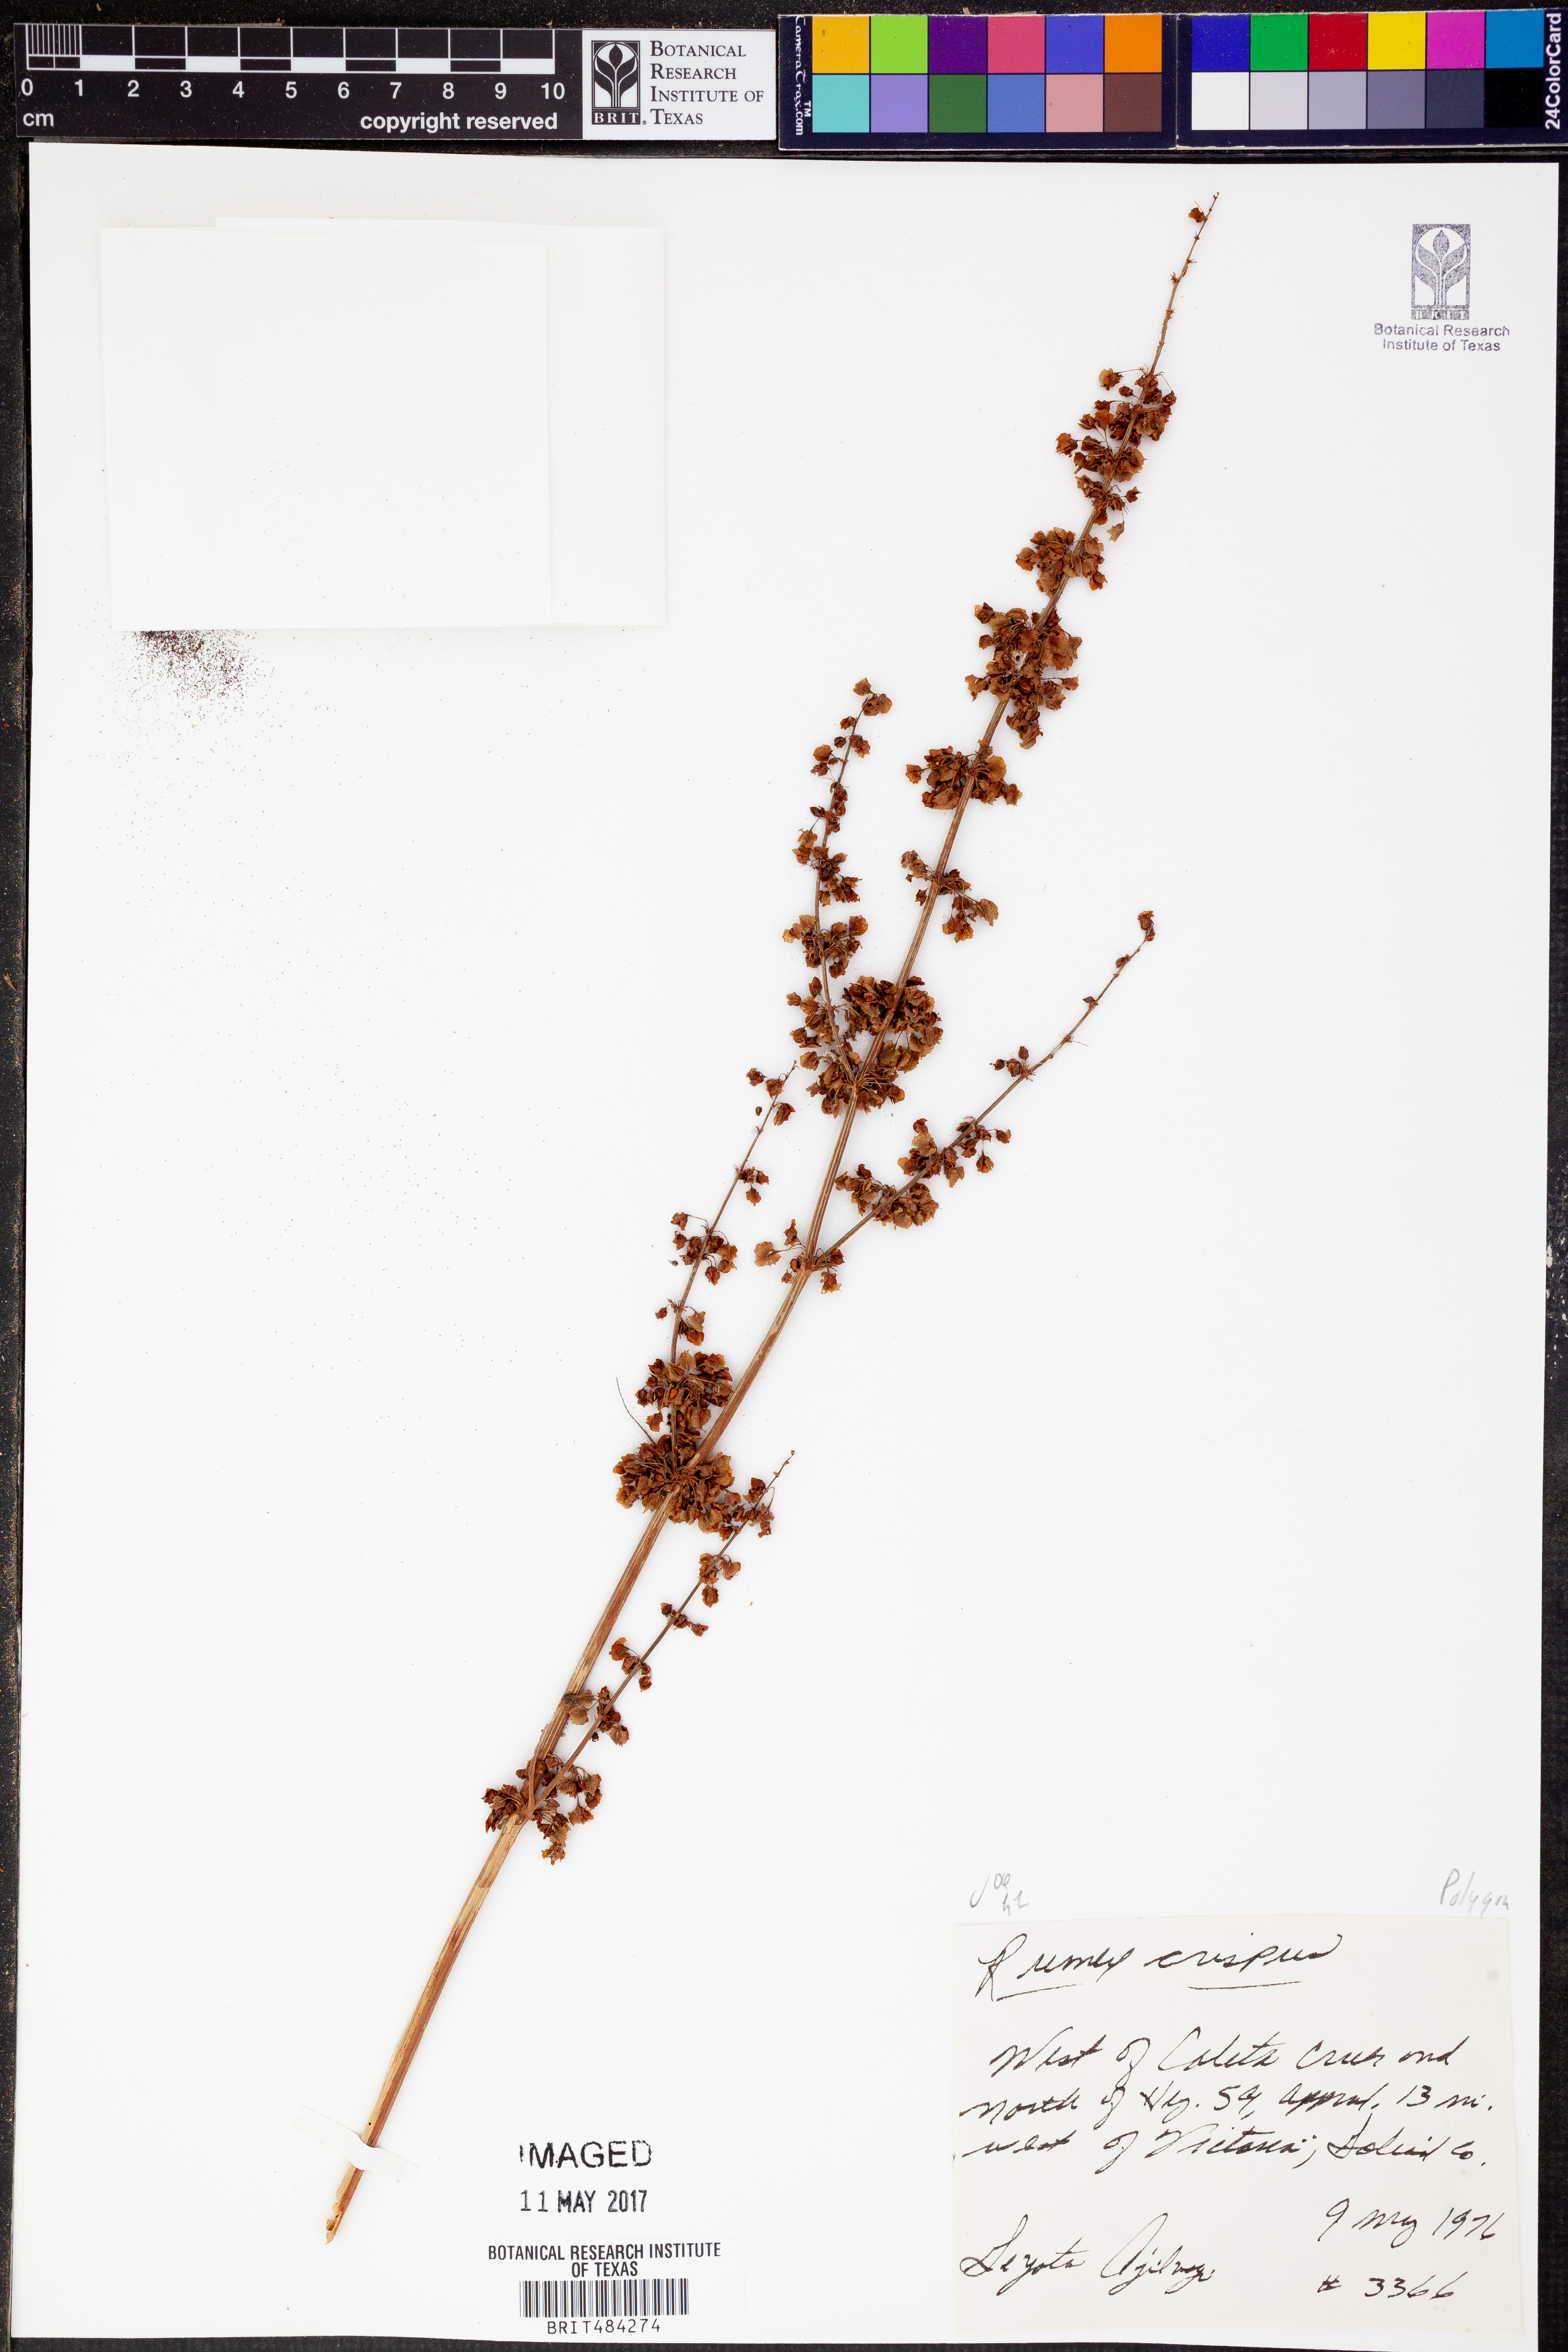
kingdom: Plantae
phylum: Tracheophyta
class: Magnoliopsida
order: Caryophyllales
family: Polygonaceae
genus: Rumex
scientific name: Rumex crispus
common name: Curled dock
